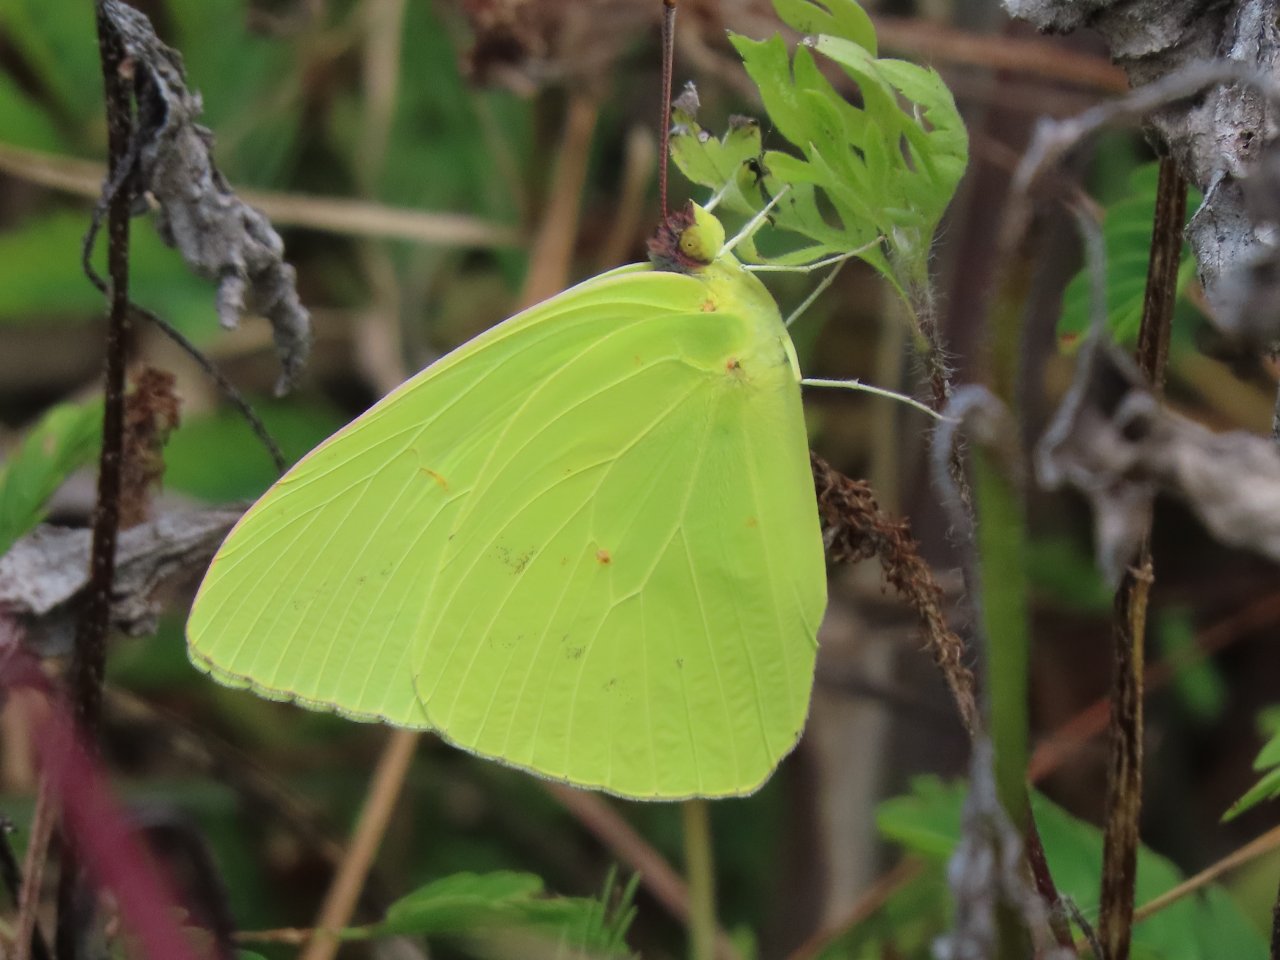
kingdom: Animalia
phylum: Arthropoda
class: Insecta
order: Lepidoptera
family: Pieridae
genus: Phoebis
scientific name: Phoebis sennae
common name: Cloudless Sulphur
